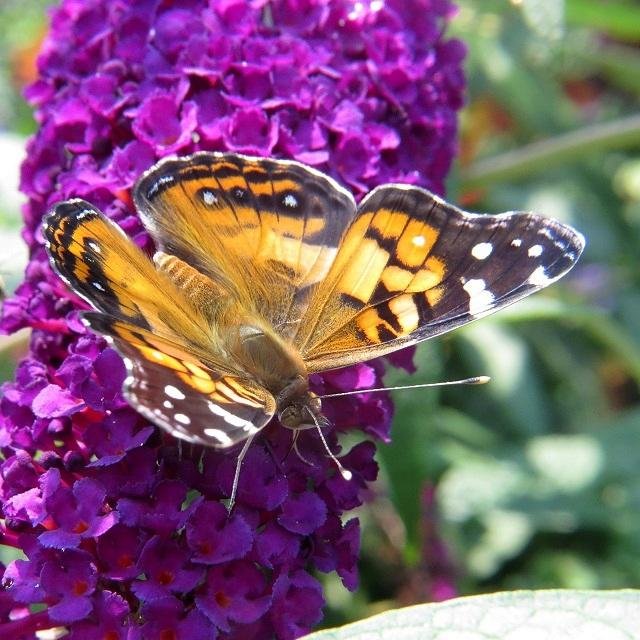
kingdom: Animalia
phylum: Arthropoda
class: Insecta
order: Lepidoptera
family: Nymphalidae
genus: Vanessa
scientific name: Vanessa virginiensis
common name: American Lady
